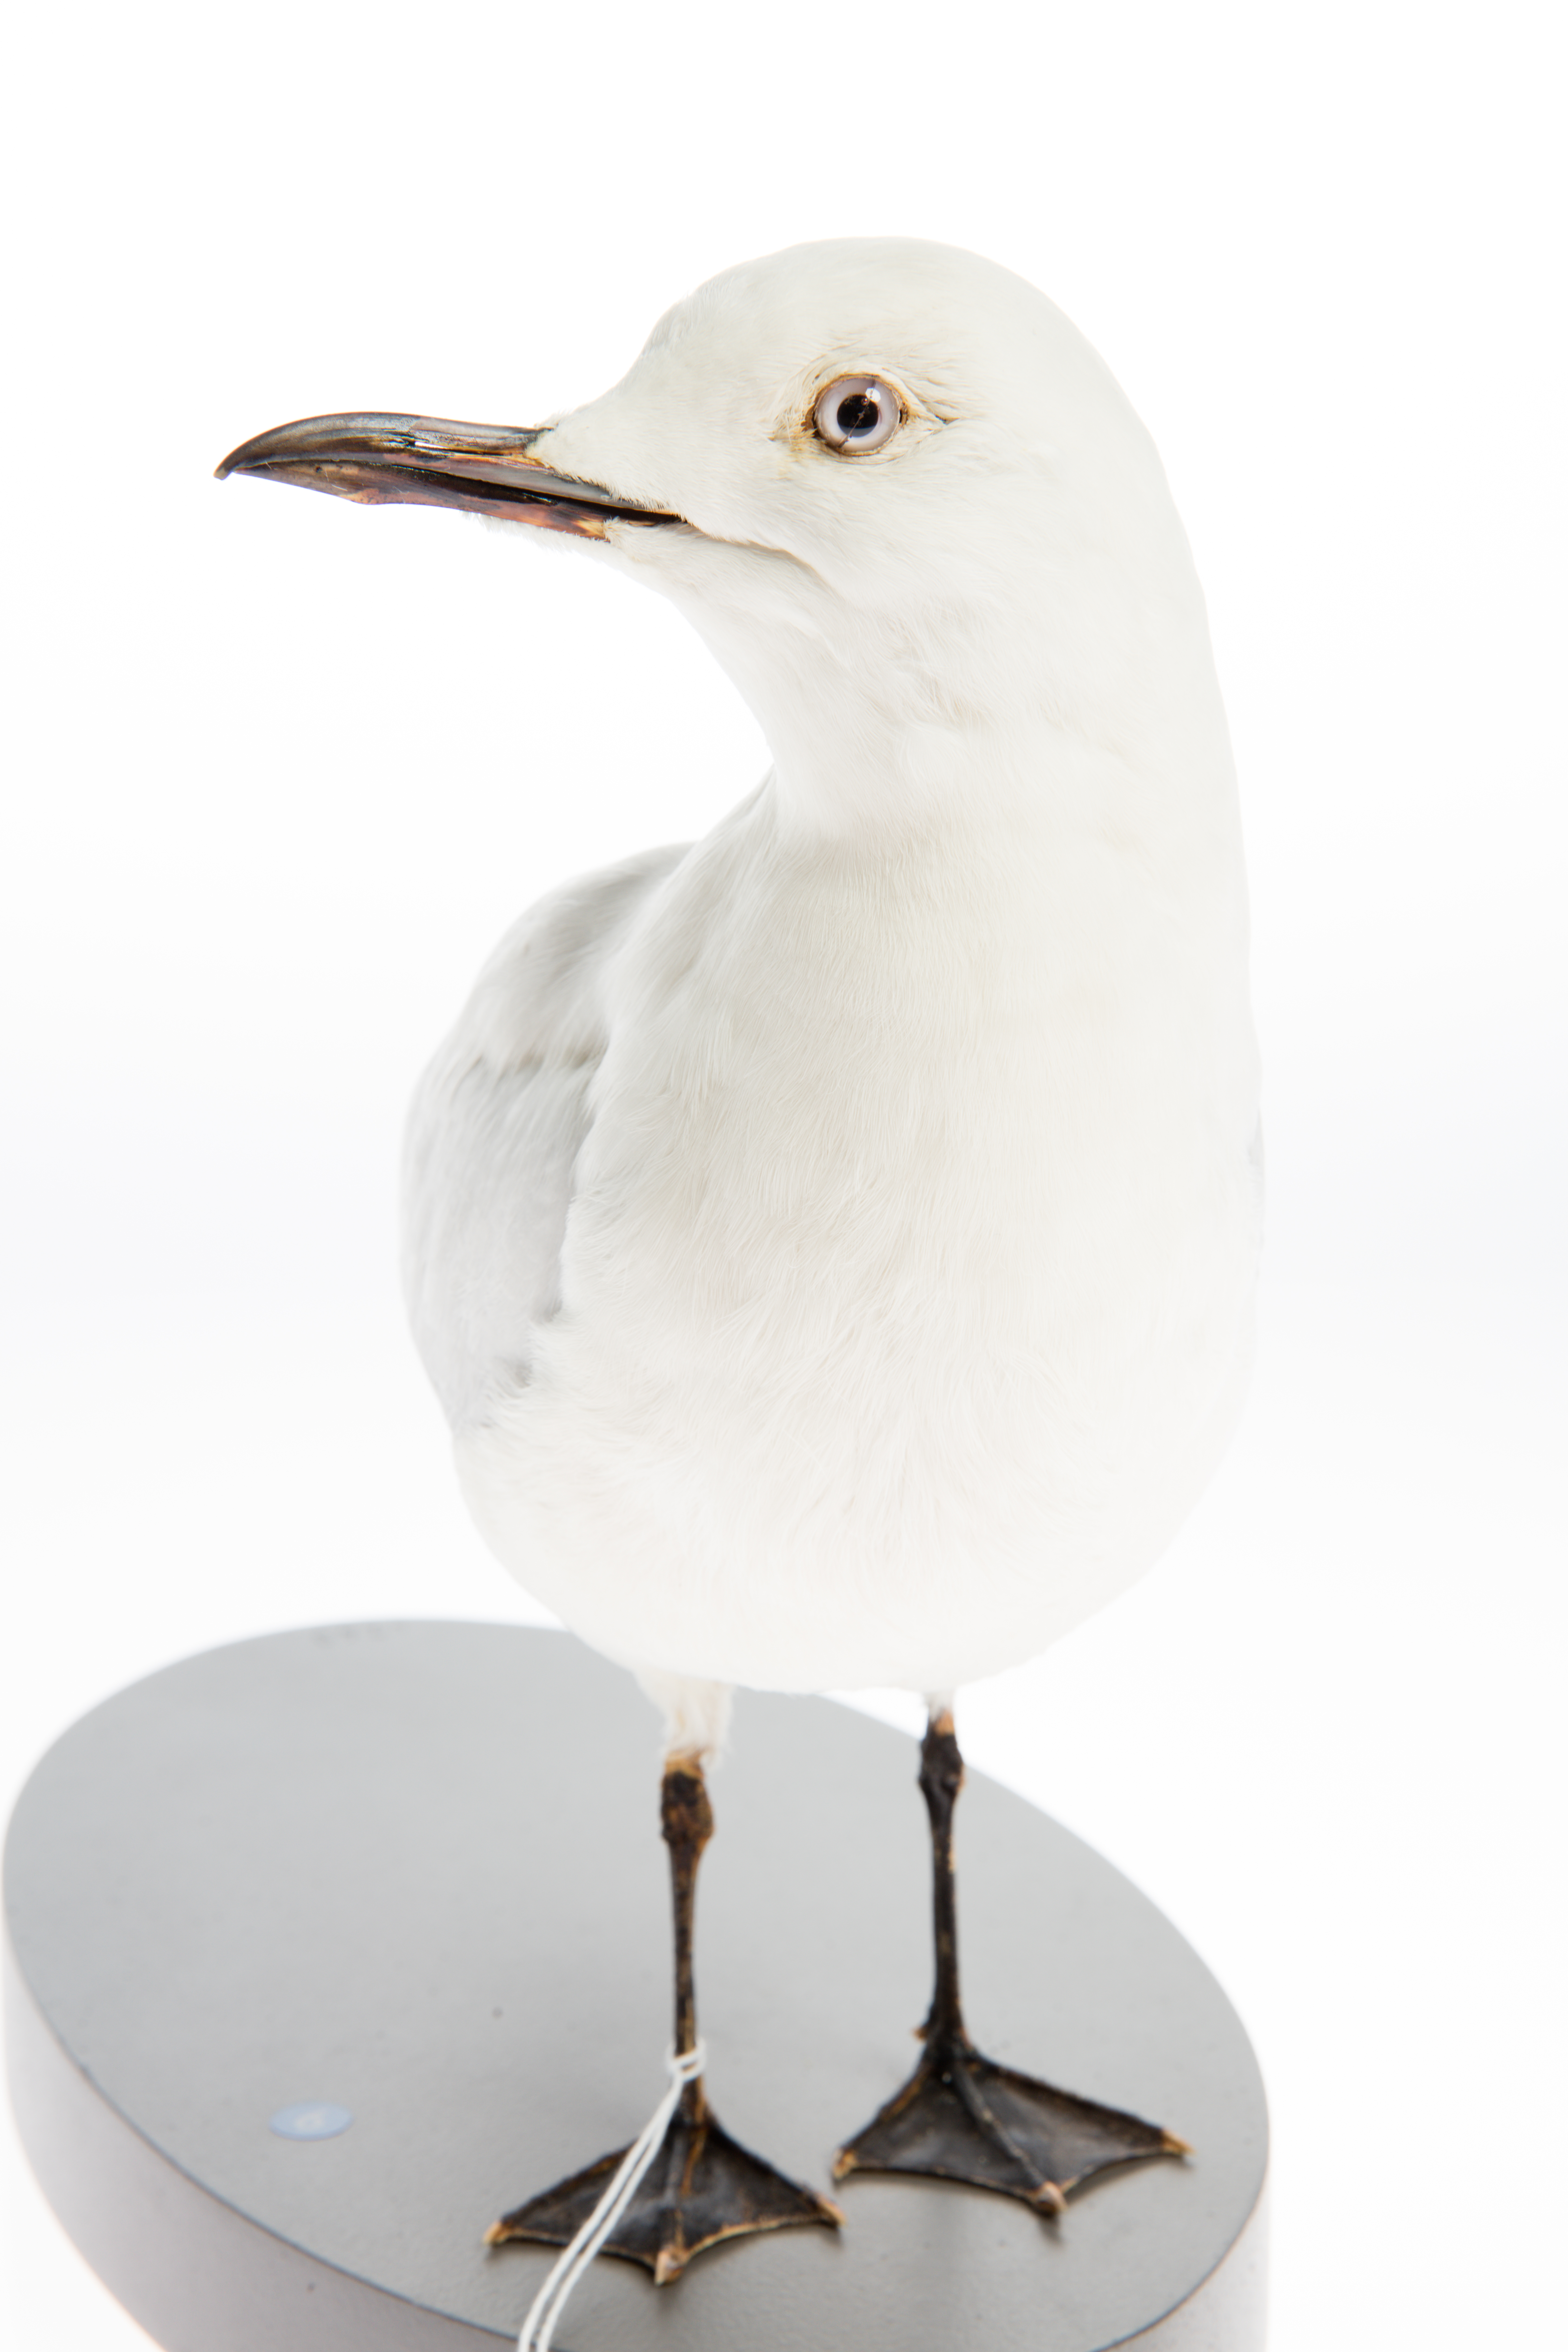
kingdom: Animalia
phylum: Chordata
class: Aves
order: Charadriiformes
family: Laridae
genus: Chroicocephalus
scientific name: Chroicocephalus bulleri
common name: Black-billed gull
